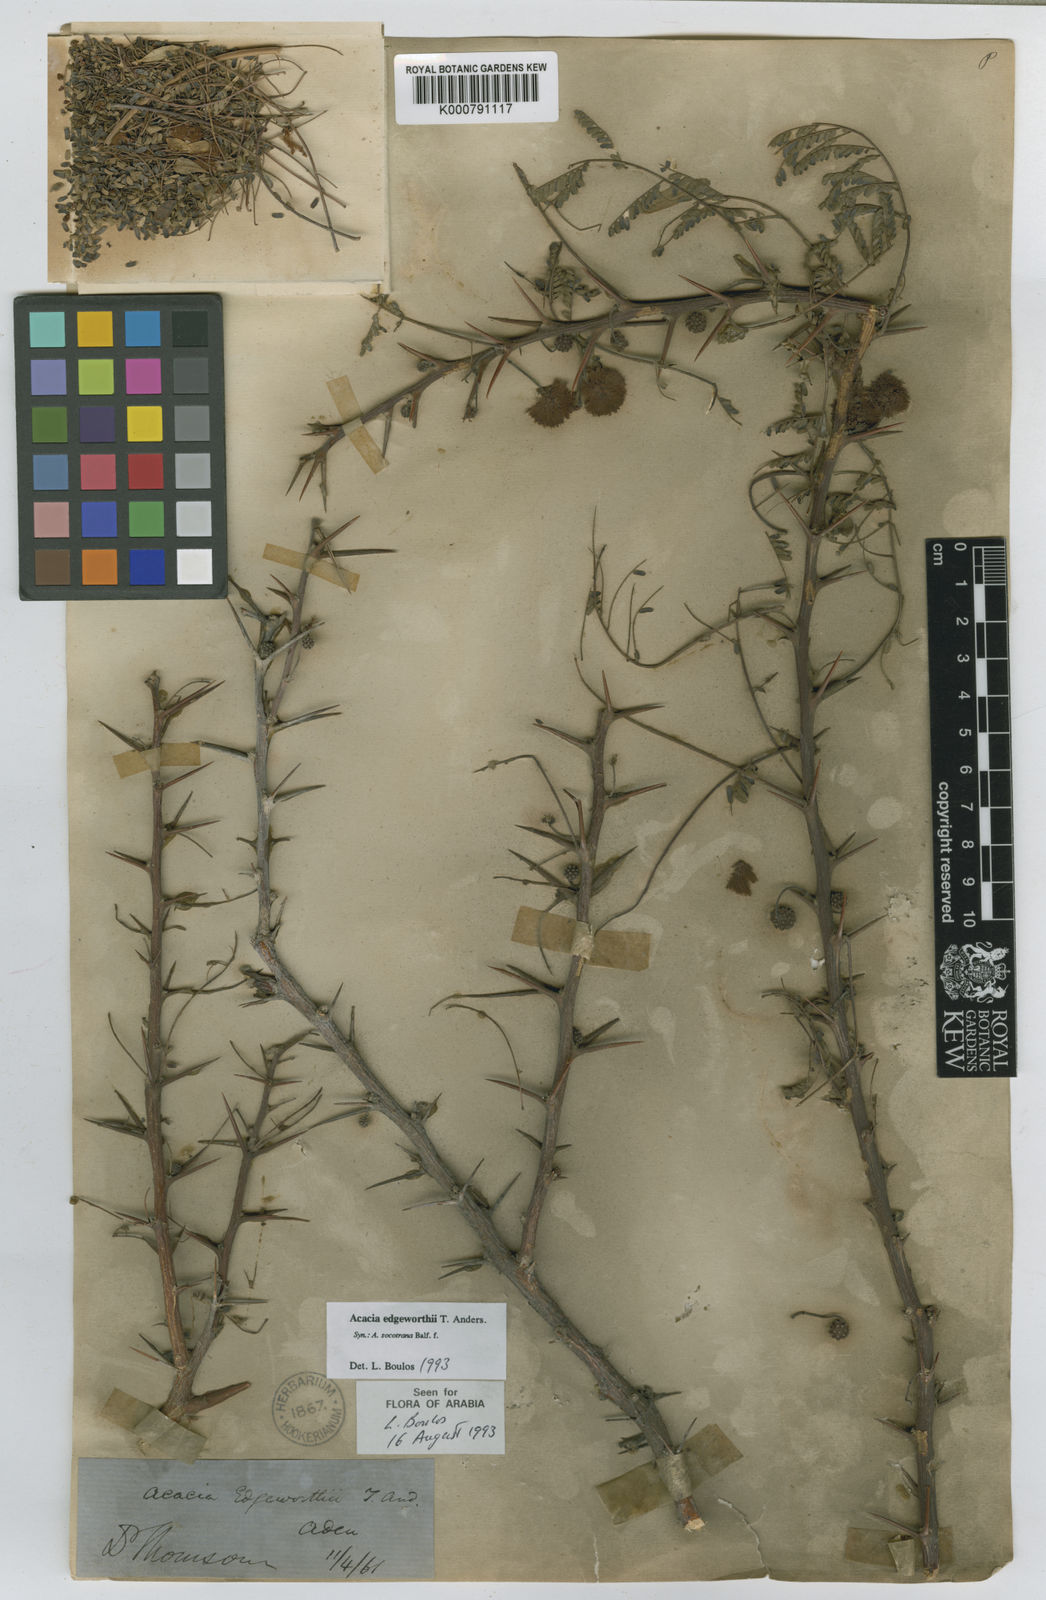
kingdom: Plantae
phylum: Tracheophyta
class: Magnoliopsida
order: Fabales
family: Fabaceae
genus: Vachellia
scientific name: Vachellia edgeworthii
